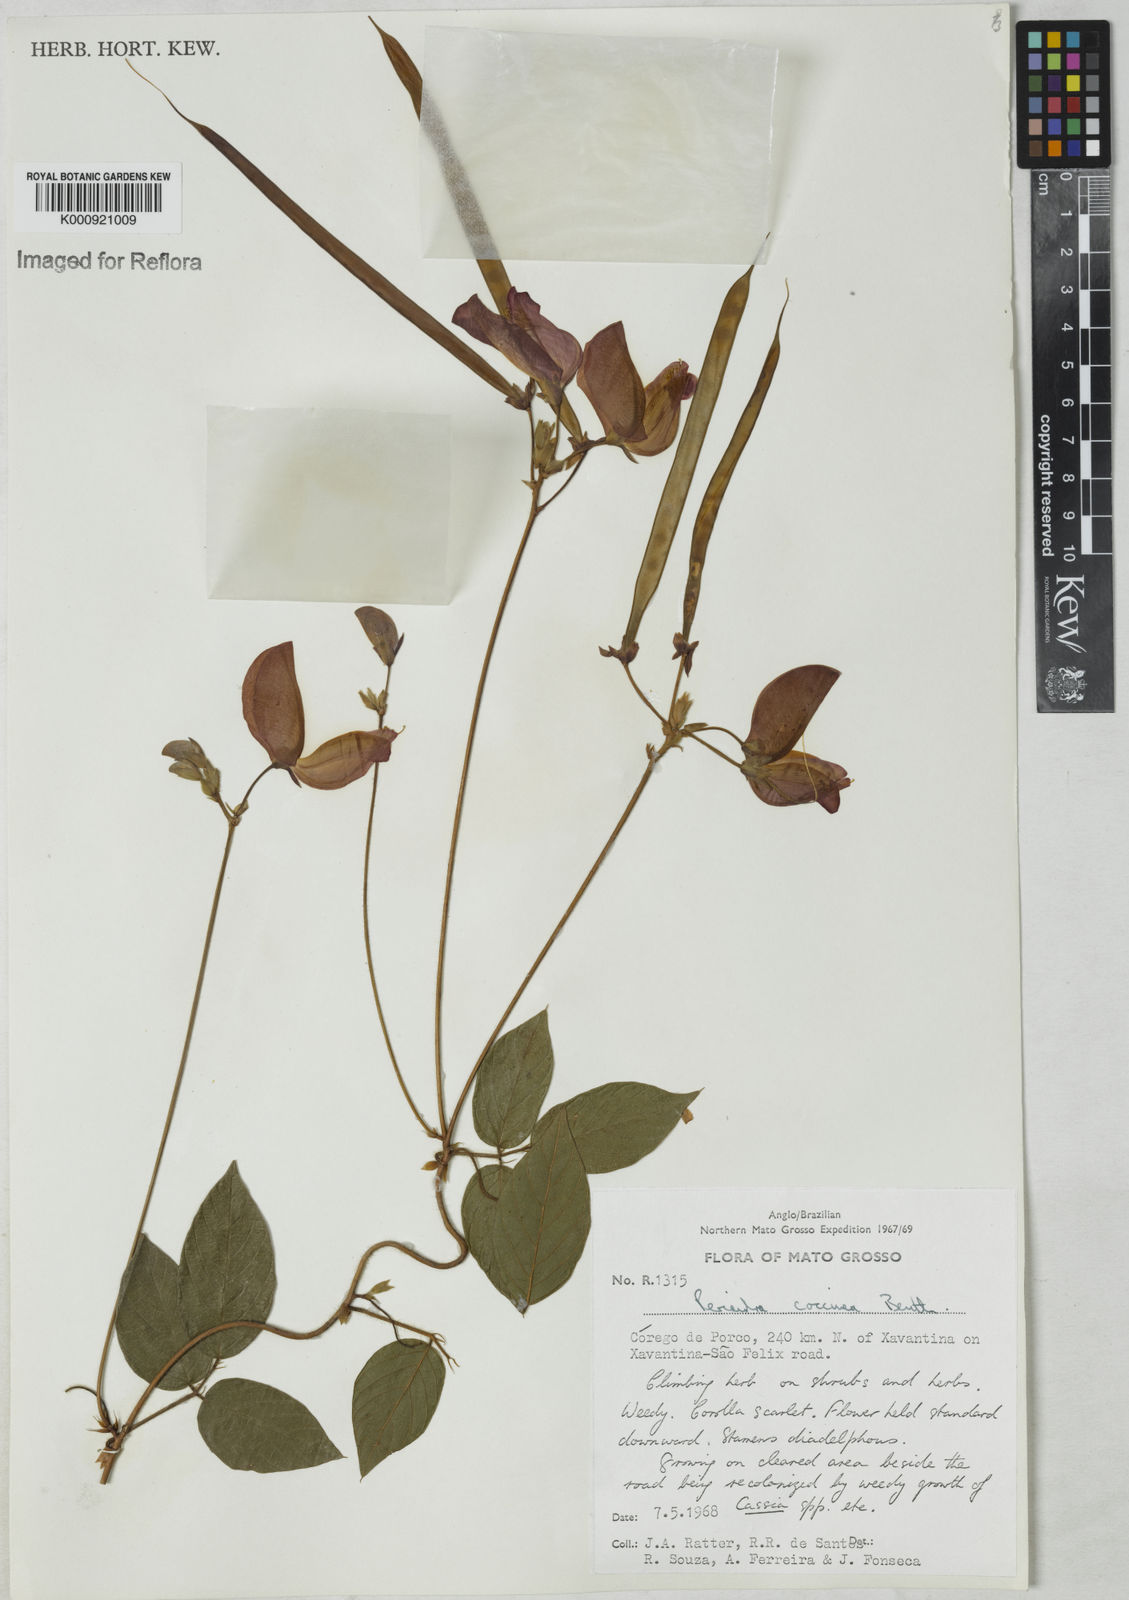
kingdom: Plantae
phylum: Tracheophyta
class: Magnoliopsida
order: Fabales
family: Fabaceae
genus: Periandra
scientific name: Periandra coccinea
